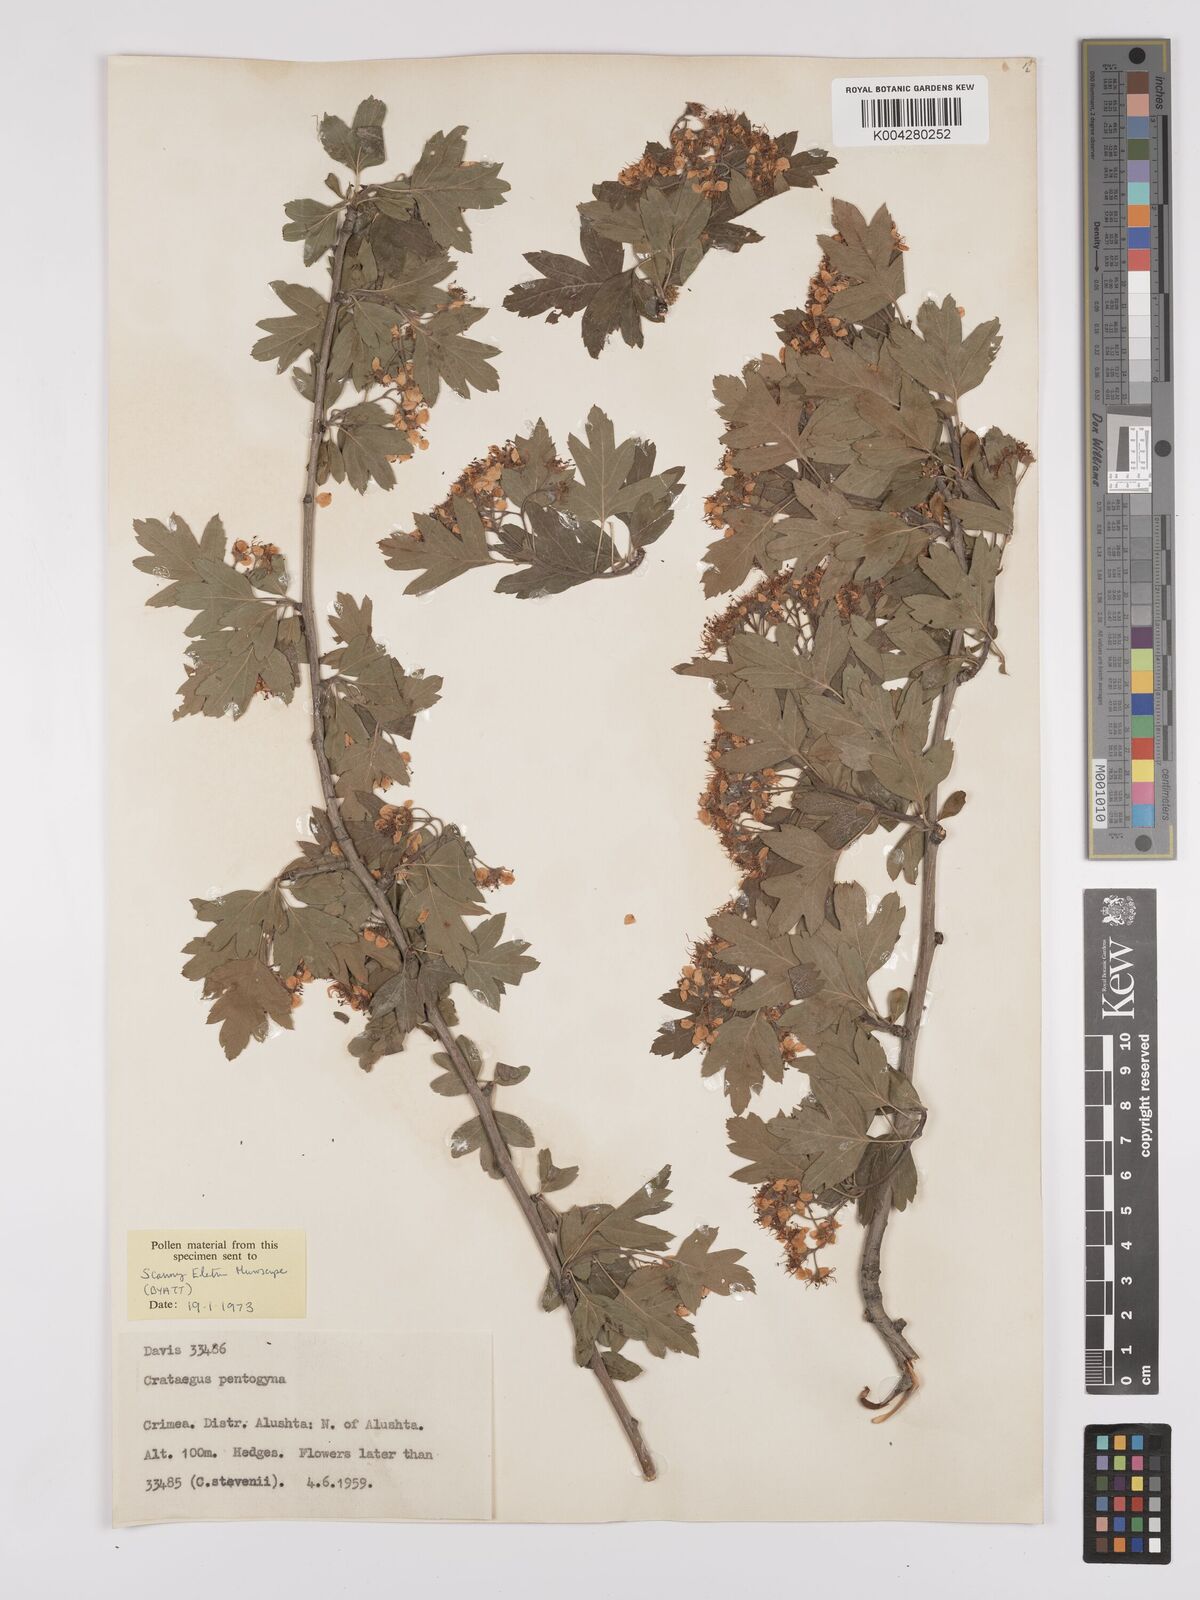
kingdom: Plantae
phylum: Tracheophyta
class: Magnoliopsida
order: Rosales
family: Rosaceae
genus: Crataegus
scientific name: Crataegus pentagyna
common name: Small-flowered black hawthorn
